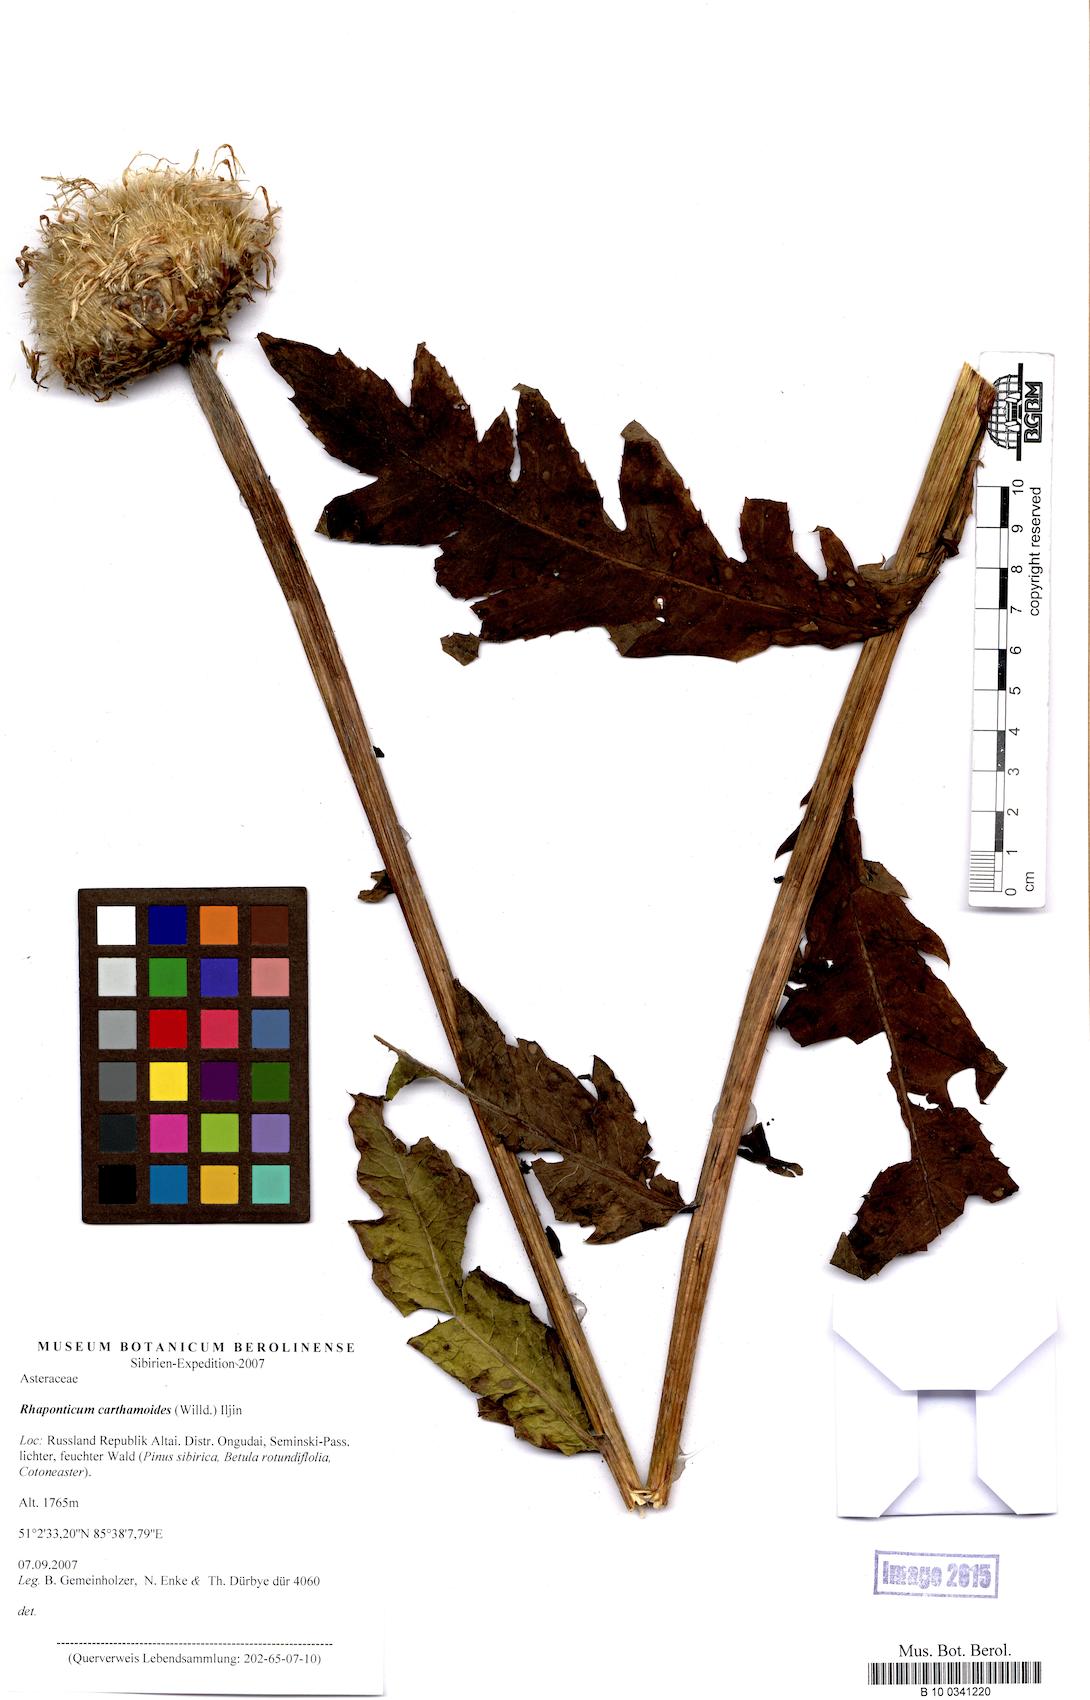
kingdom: Plantae
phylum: Tracheophyta
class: Magnoliopsida
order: Asterales
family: Asteraceae
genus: Leuzea
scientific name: Leuzea carthamoides
